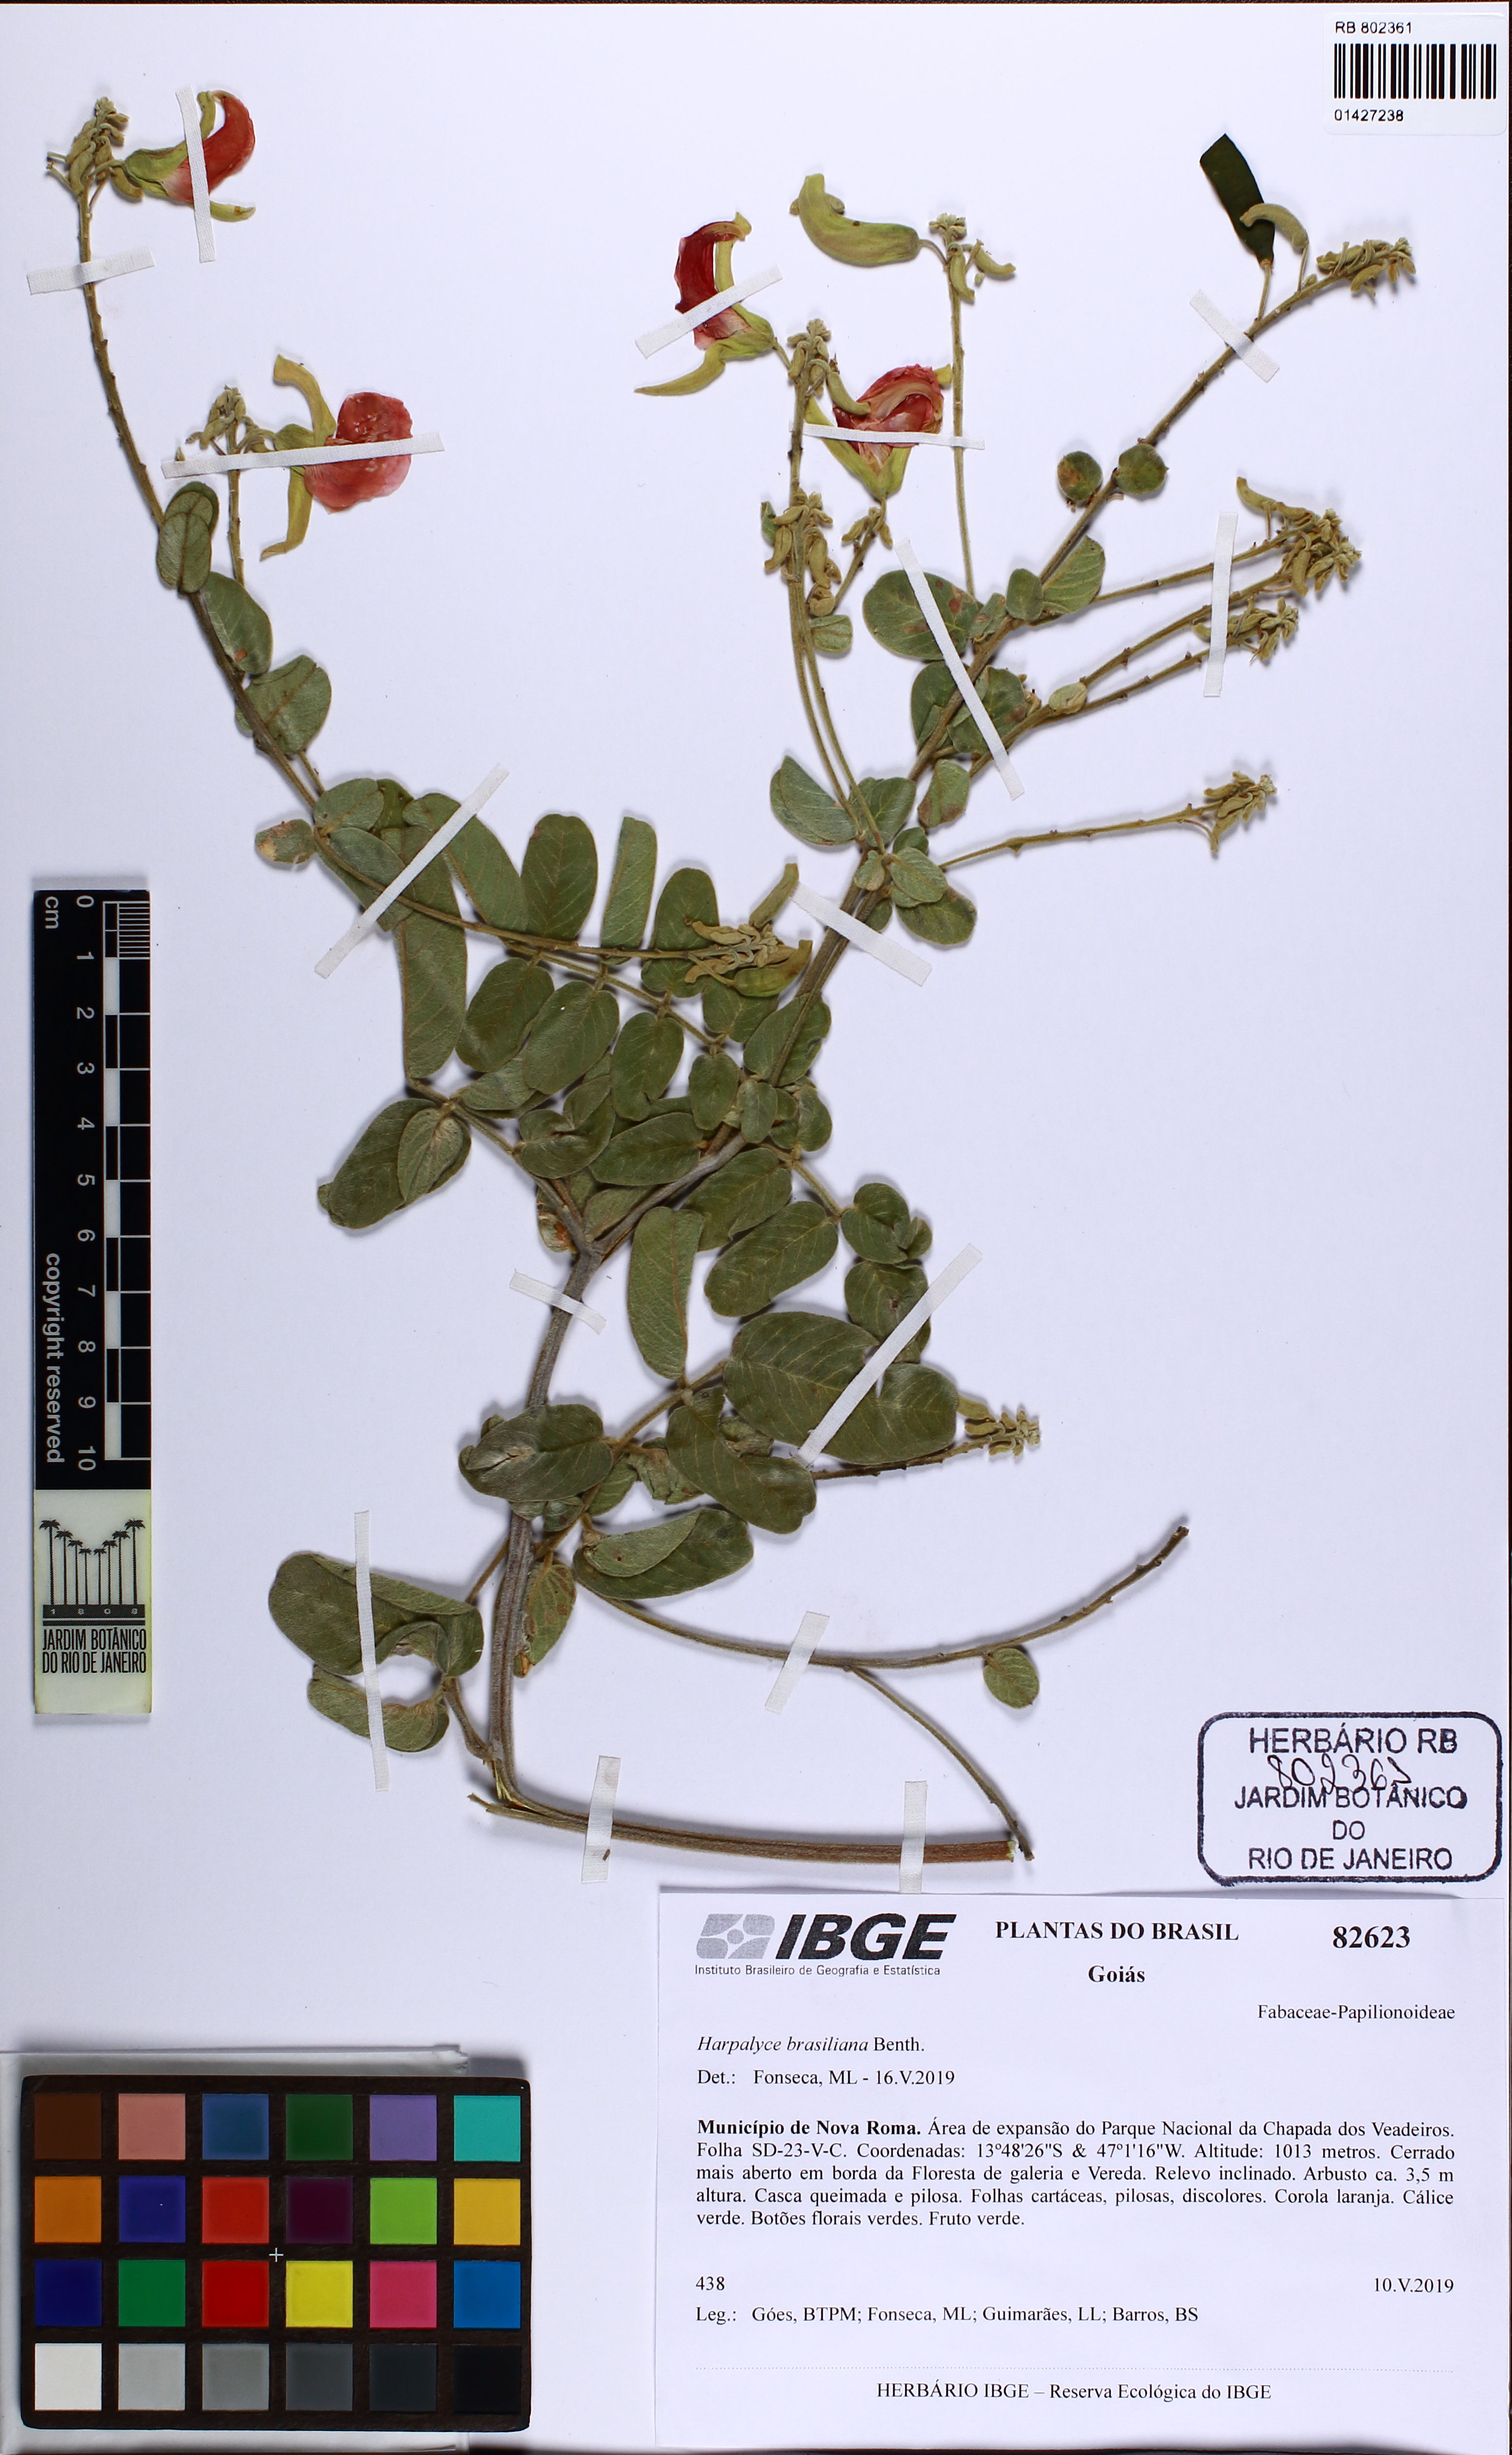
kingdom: Plantae
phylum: Tracheophyta
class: Magnoliopsida
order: Fabales
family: Fabaceae
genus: Harpalyce
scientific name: Harpalyce brasiliana
